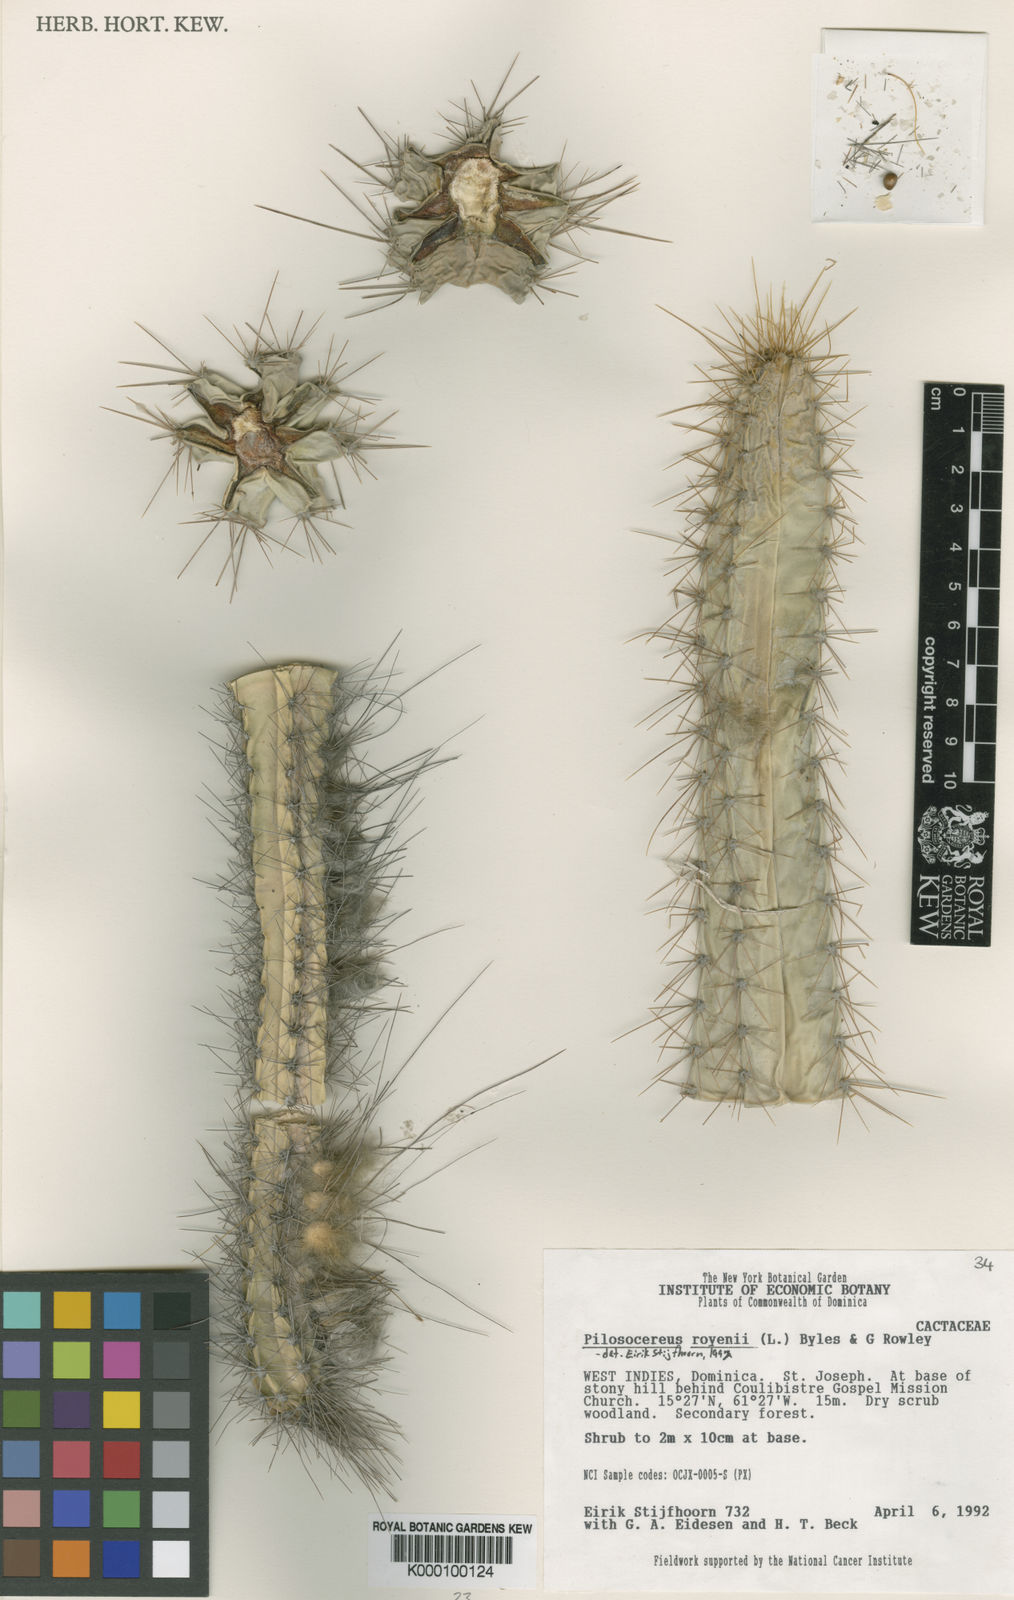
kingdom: Plantae
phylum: Tracheophyta
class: Magnoliopsida
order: Caryophyllales
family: Cactaceae
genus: Pilosocereus
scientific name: Pilosocereus polygonus
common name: Key tree cactus
